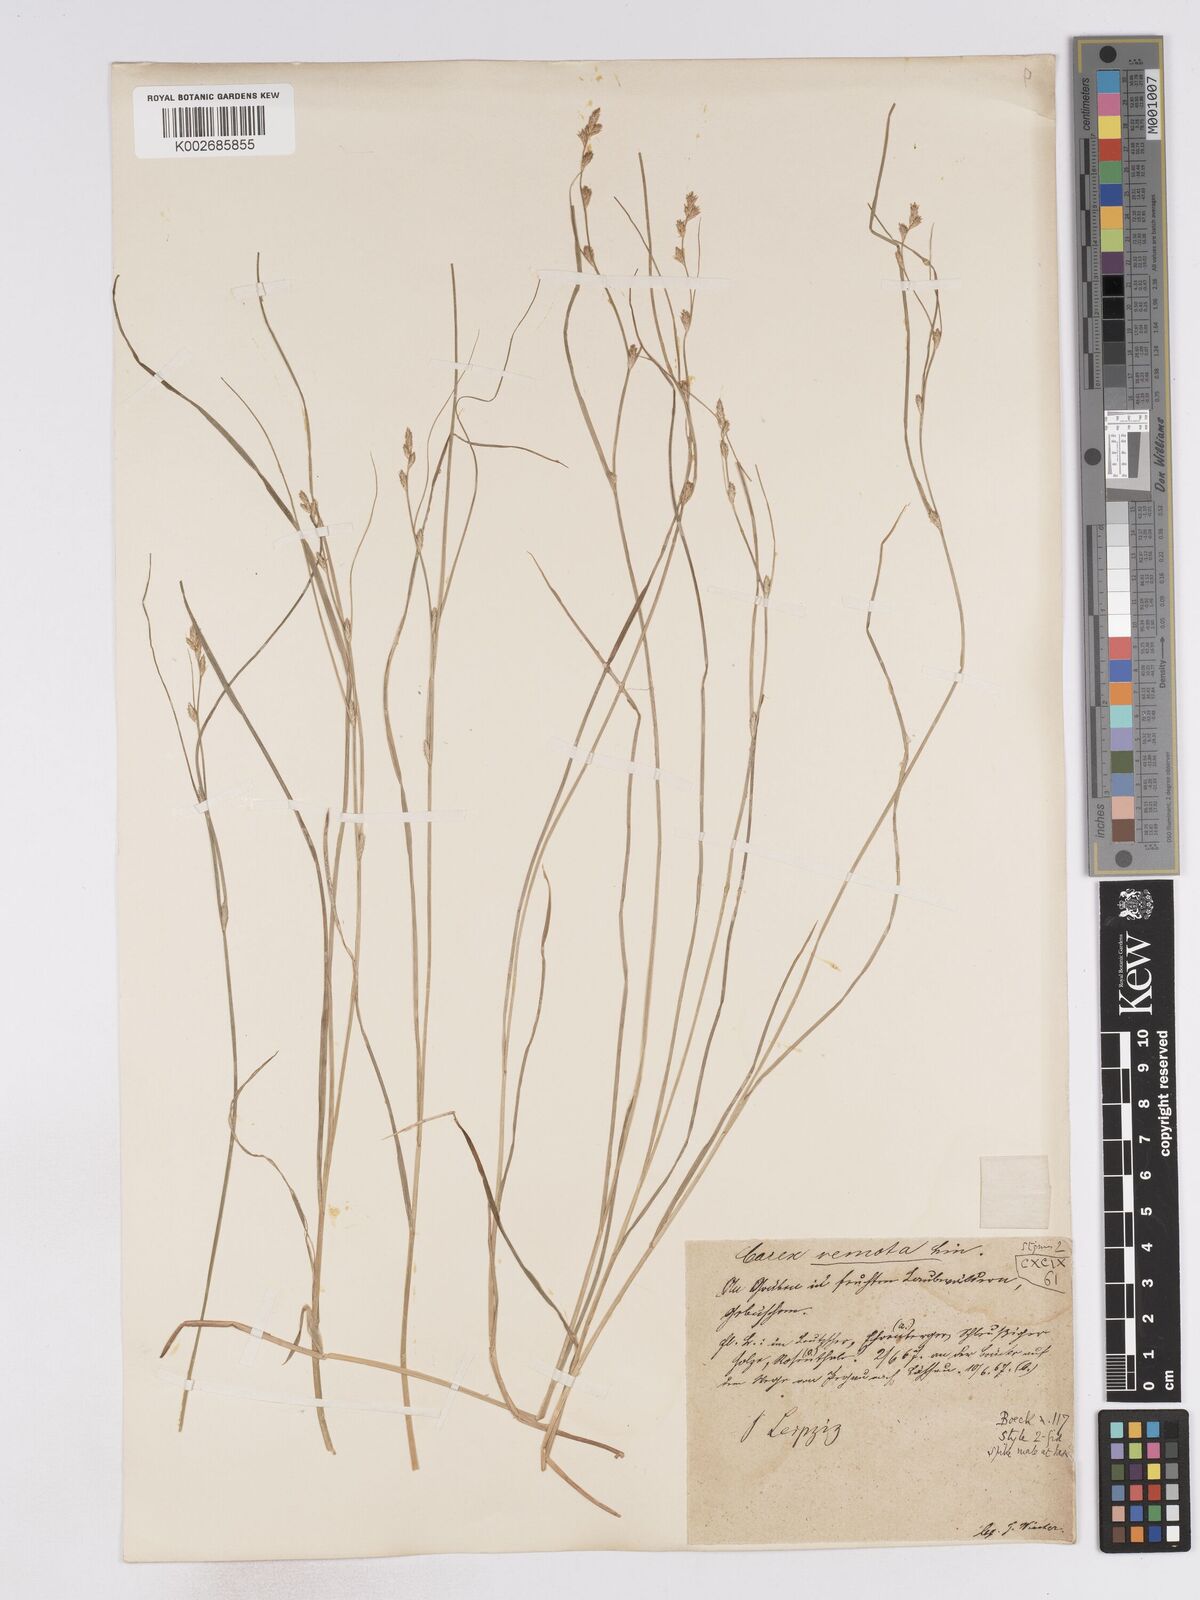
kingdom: Plantae
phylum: Tracheophyta
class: Liliopsida
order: Poales
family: Cyperaceae
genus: Carex
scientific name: Carex remota
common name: Remote sedge
